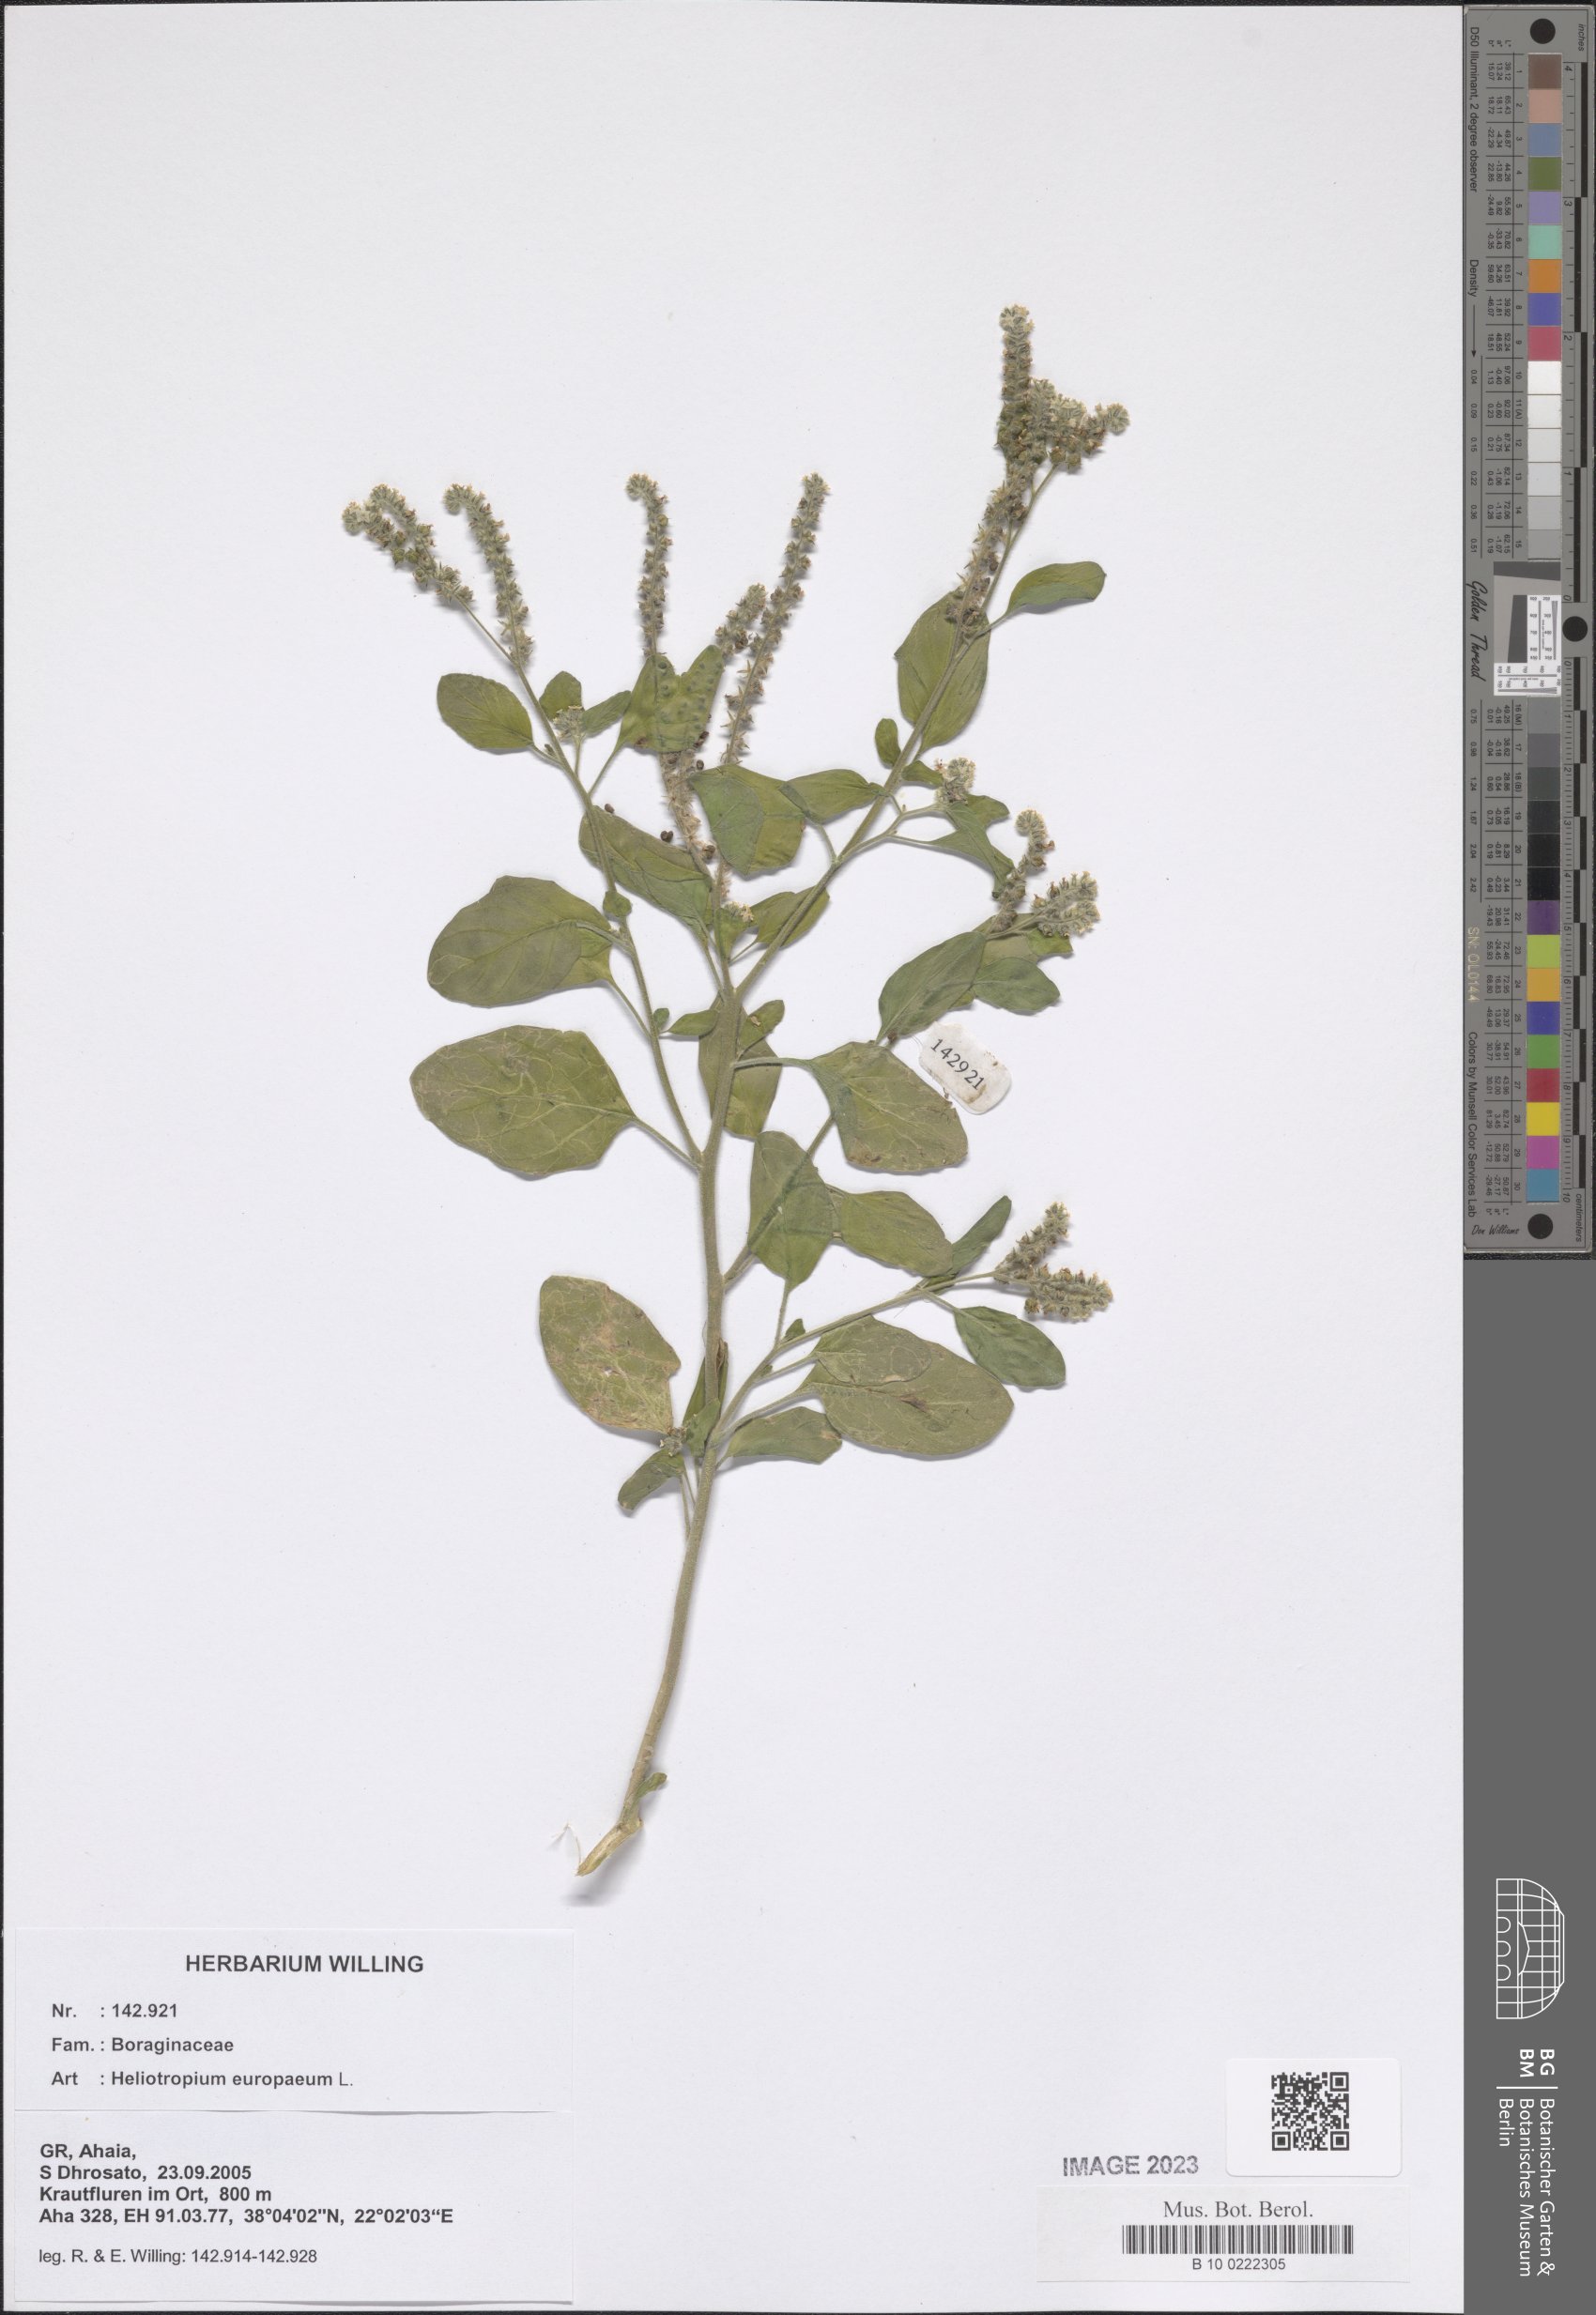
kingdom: Plantae
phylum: Tracheophyta
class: Magnoliopsida
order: Boraginales
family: Heliotropiaceae
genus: Heliotropium
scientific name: Heliotropium europaeum
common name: European heliotrope
